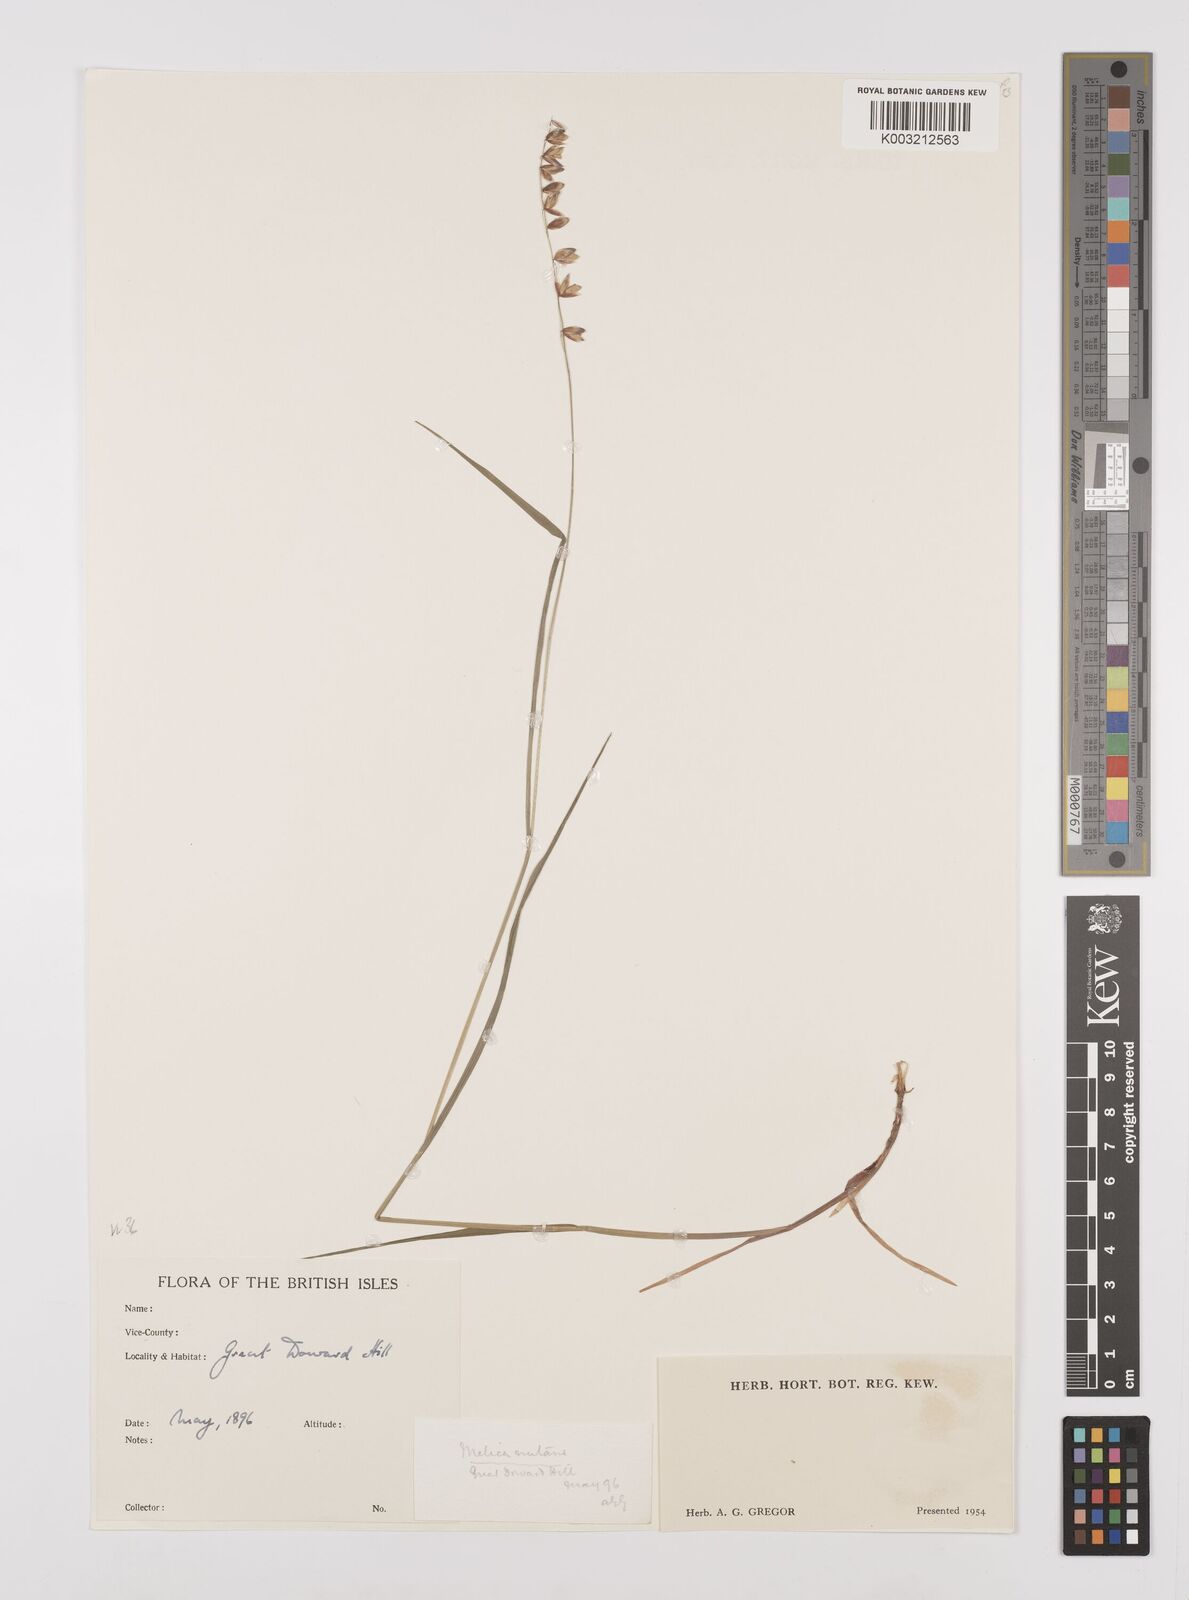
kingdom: Plantae
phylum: Tracheophyta
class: Liliopsida
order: Poales
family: Poaceae
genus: Melica
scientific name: Melica
